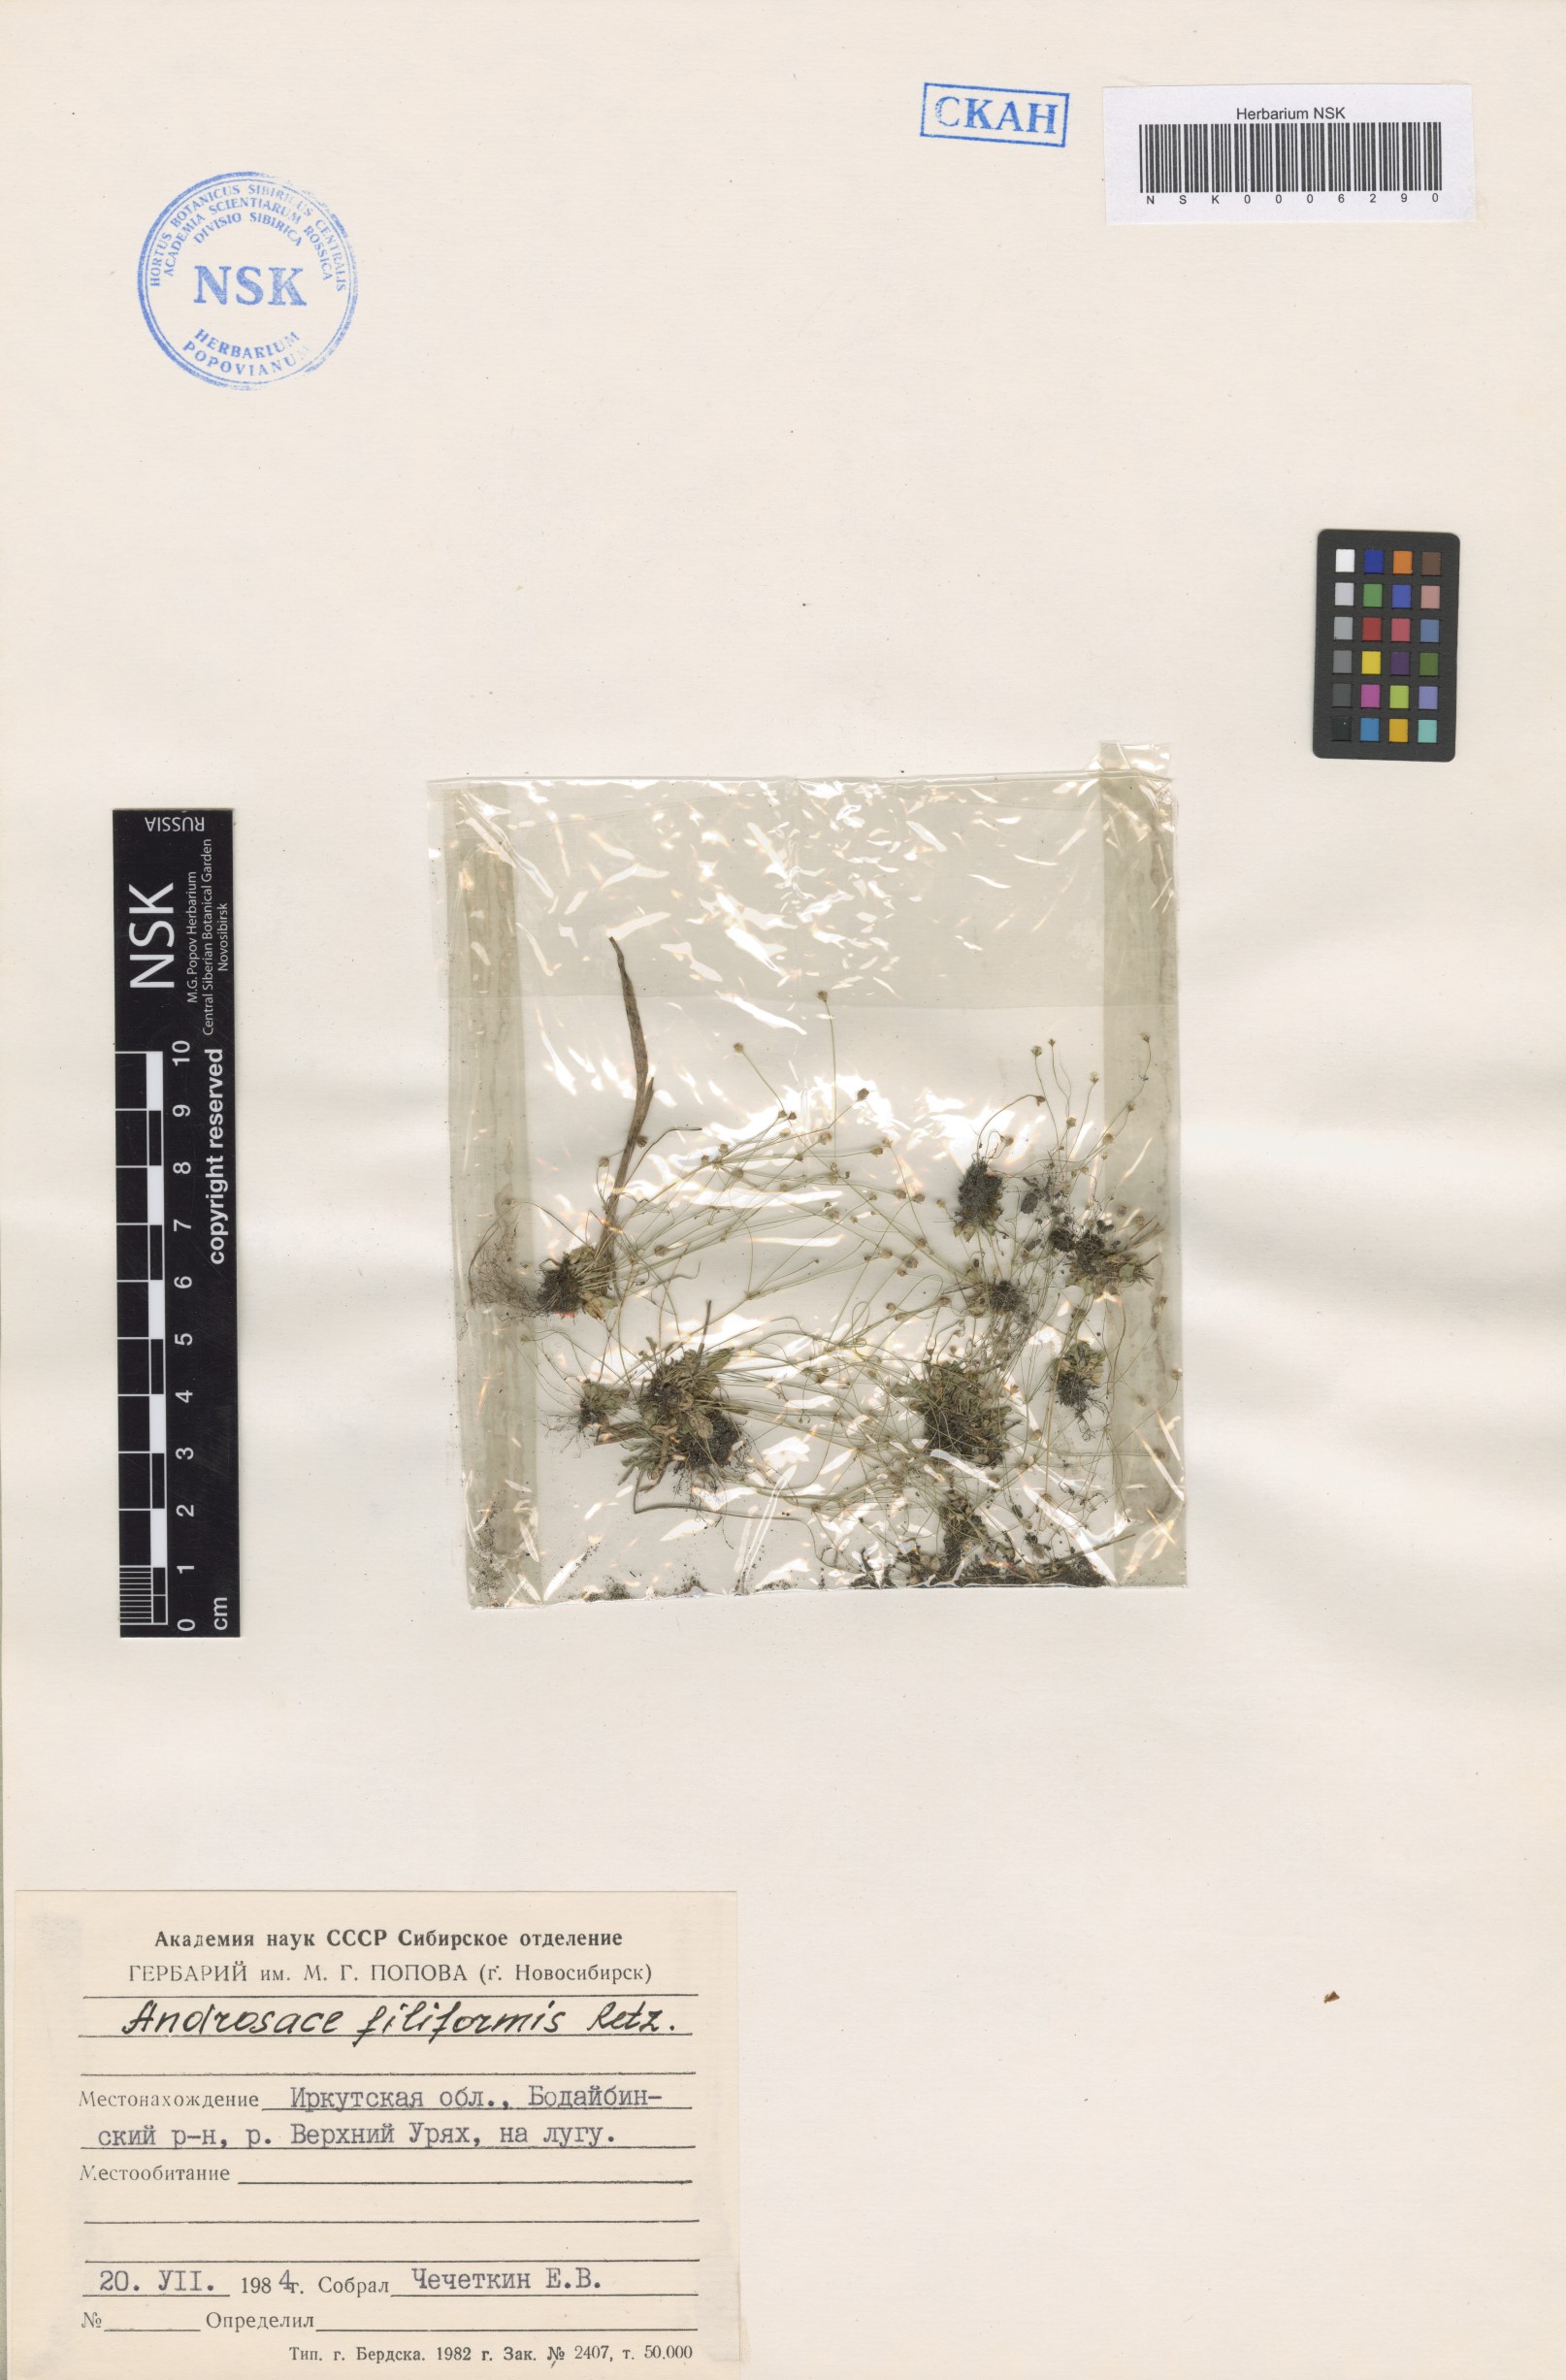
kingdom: Plantae
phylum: Tracheophyta
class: Magnoliopsida
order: Ericales
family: Primulaceae
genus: Androsace
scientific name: Androsace filiformis
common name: Filiform rock jasmine
